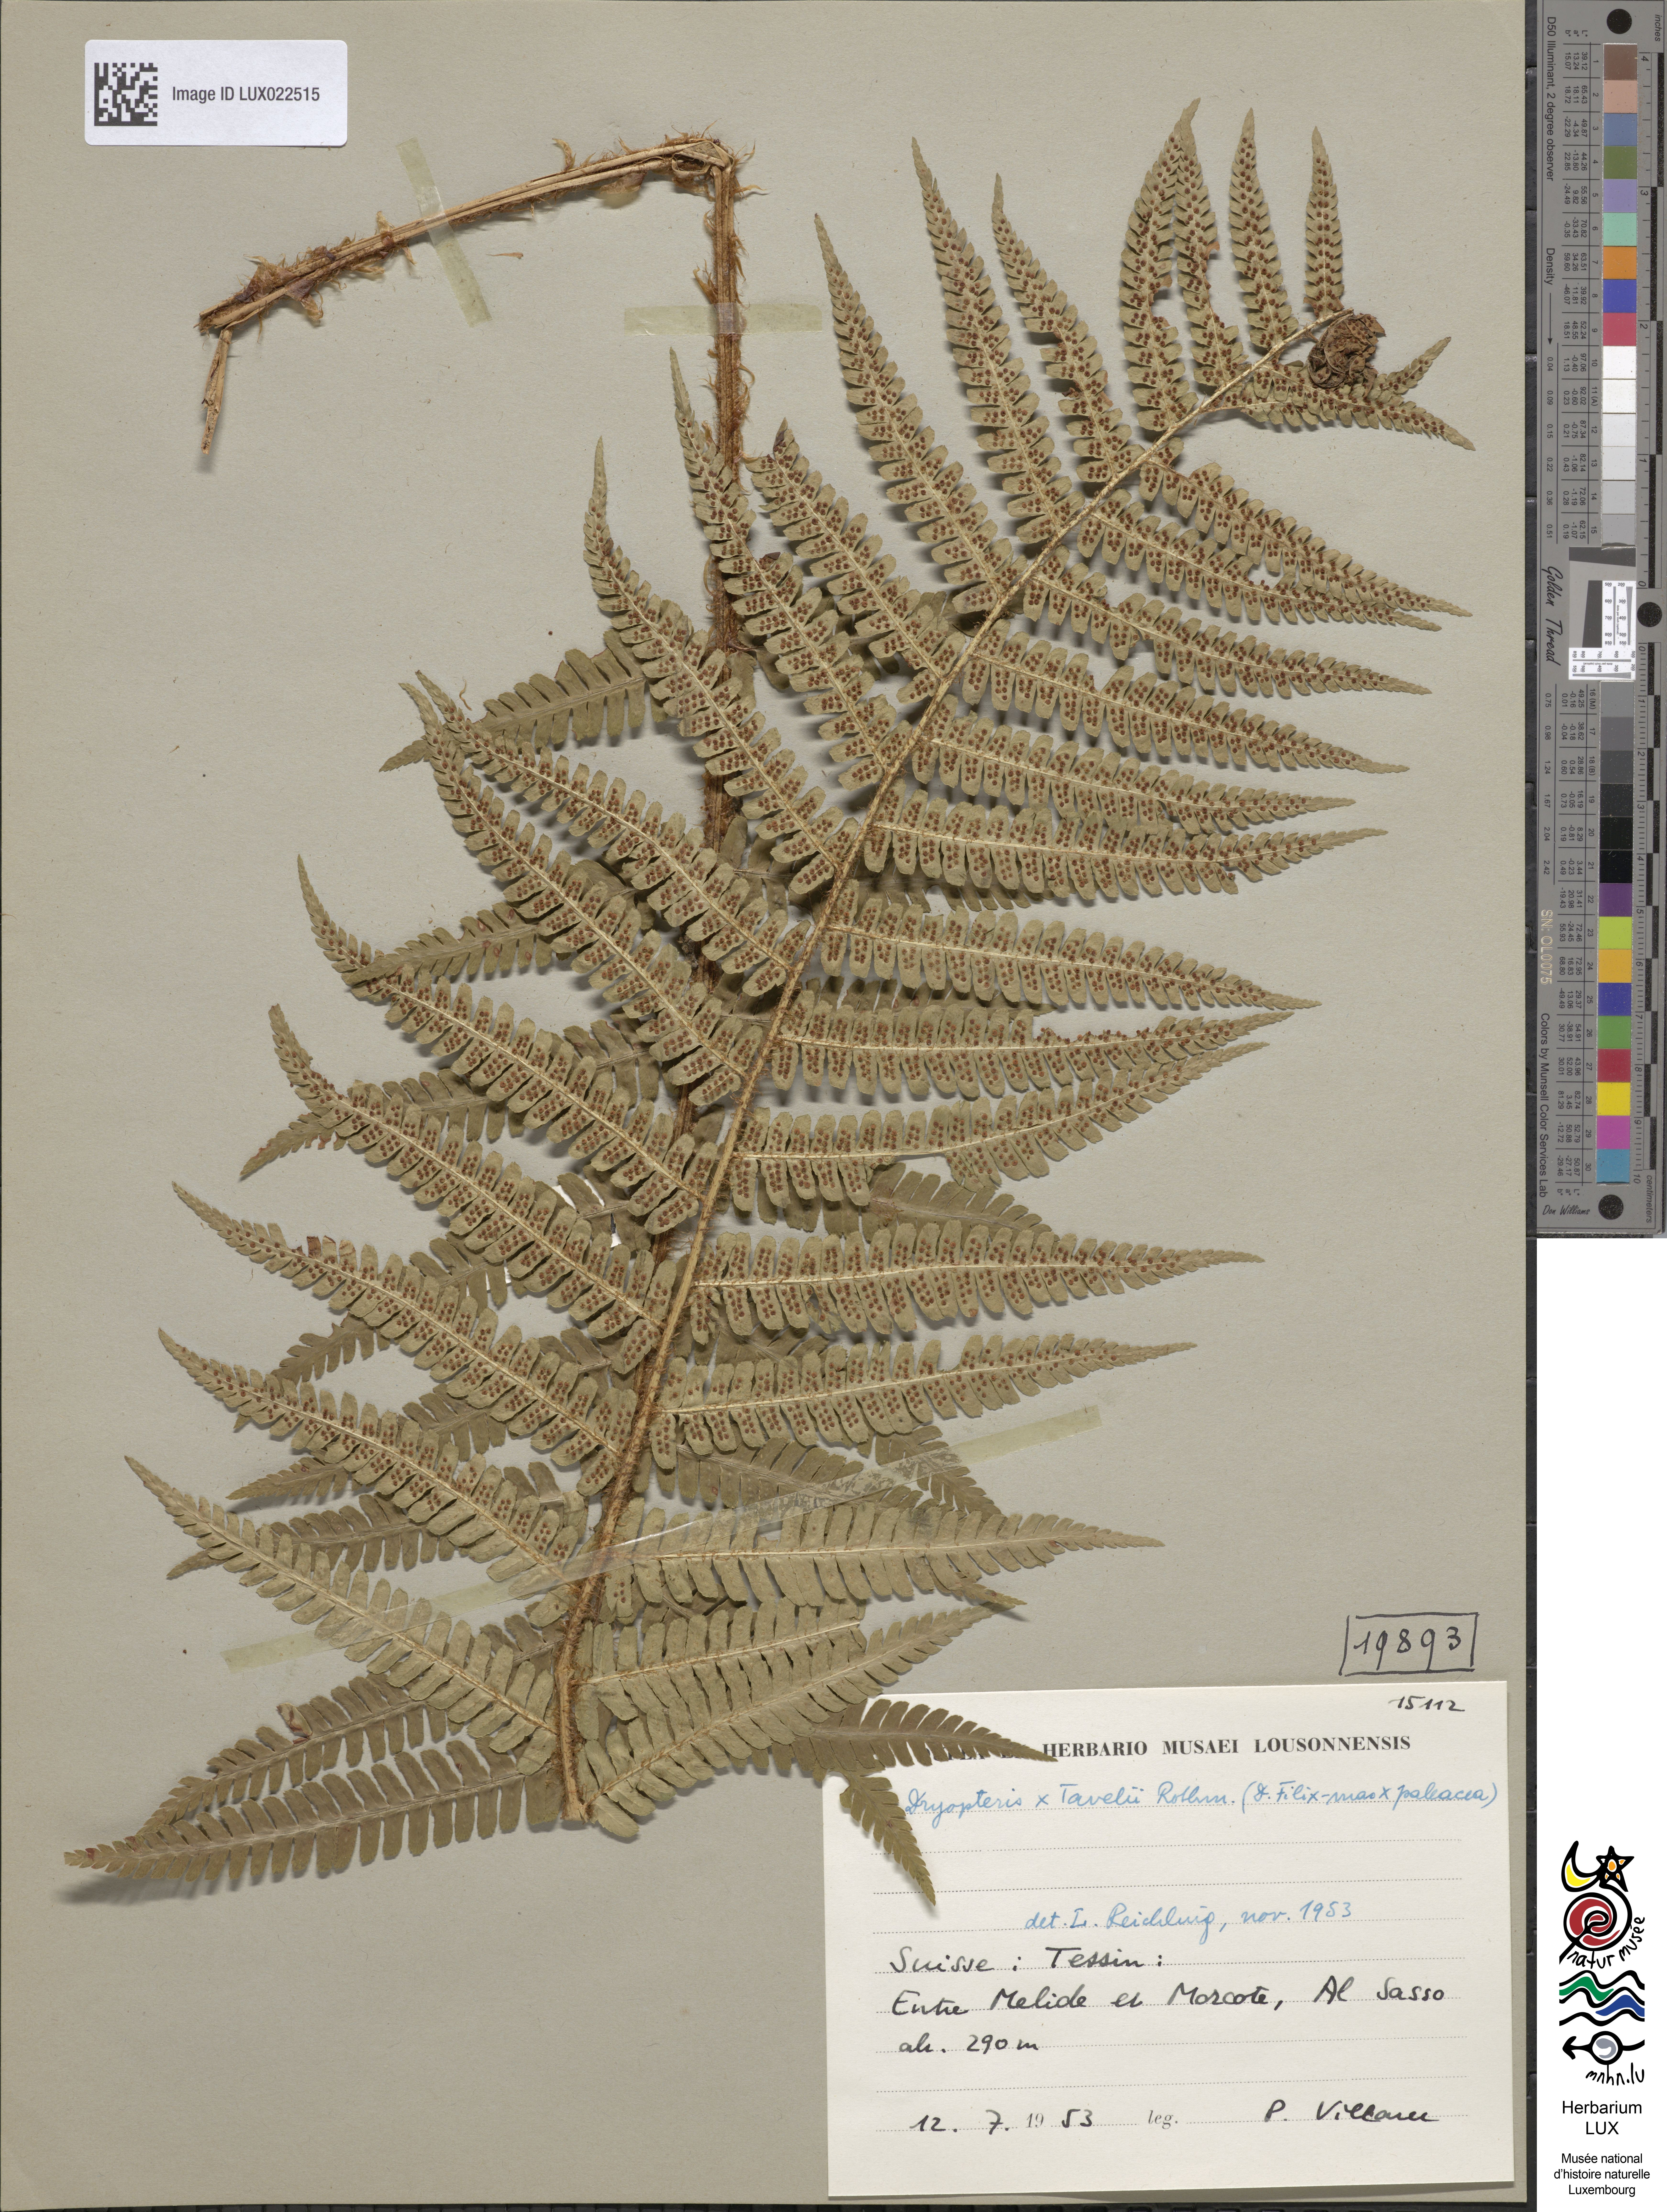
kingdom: Plantae
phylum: Tracheophyta
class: Polypodiopsida
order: Polypodiales
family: Dryopteridaceae
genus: Dryopteris
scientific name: Dryopteris borreri
